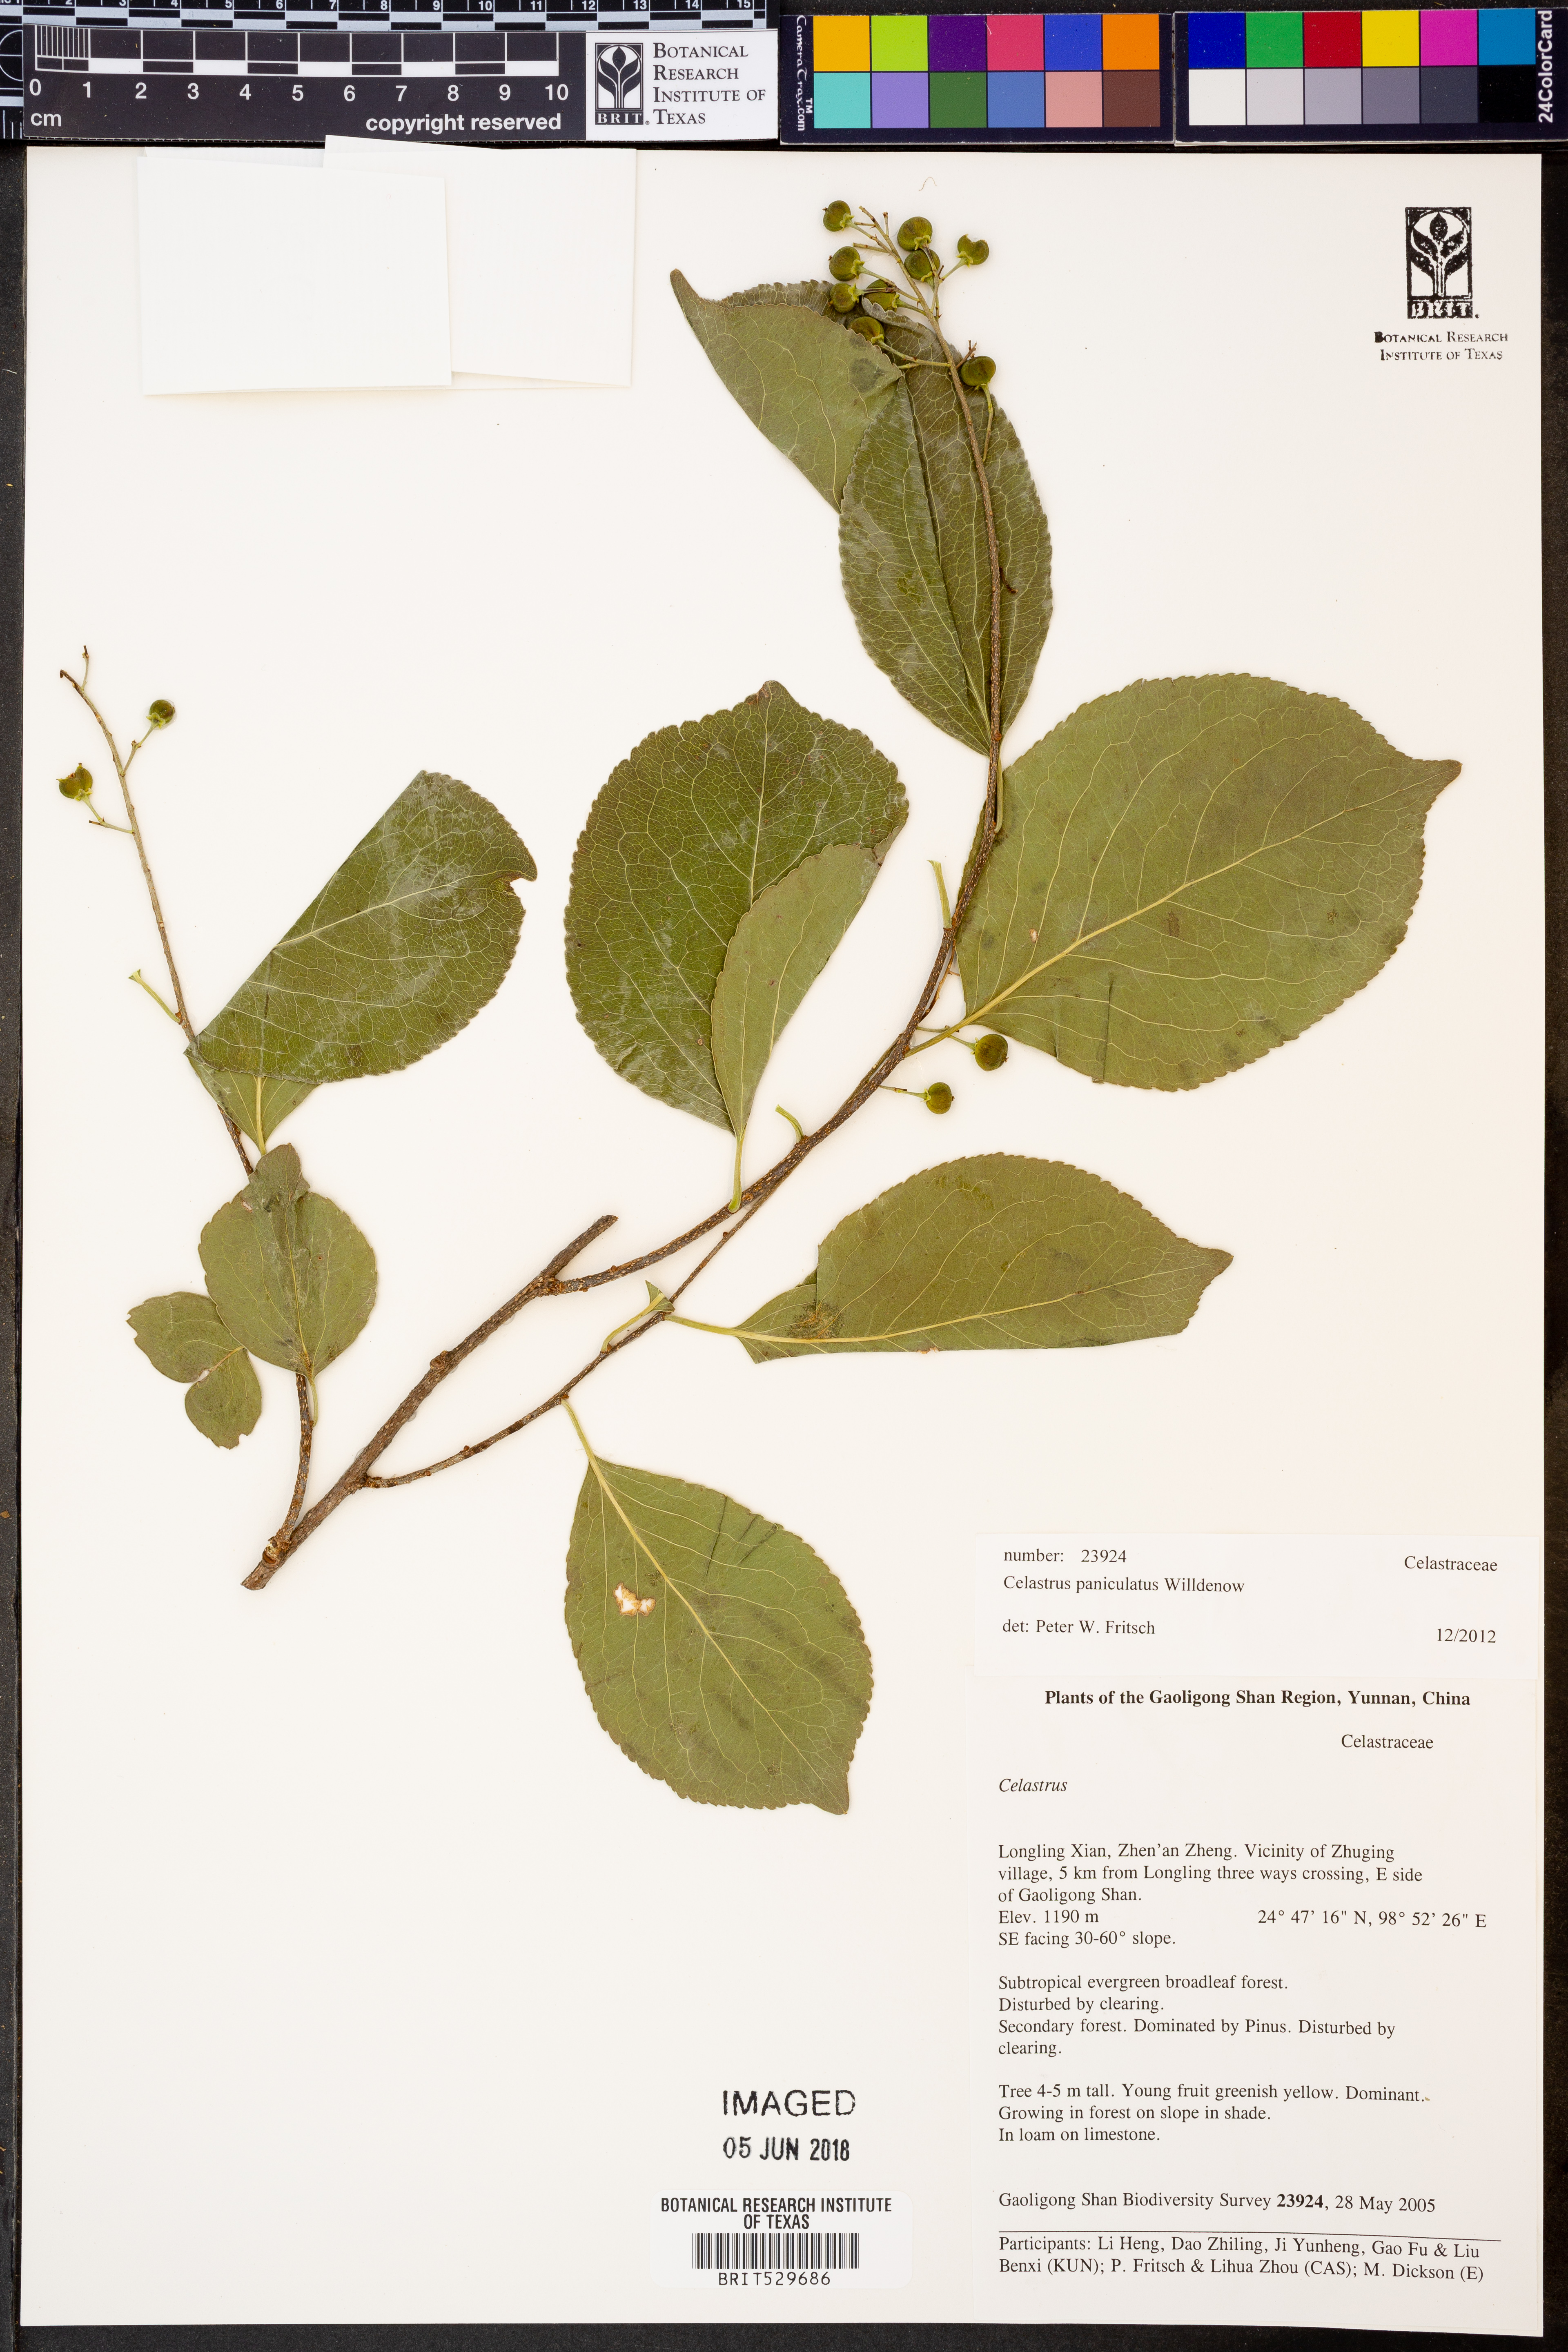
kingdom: Plantae
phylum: Tracheophyta
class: Magnoliopsida
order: Celastrales
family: Celastraceae
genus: Celastrus
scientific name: Celastrus paniculatus
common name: Oriental bittersweet; staff vine
